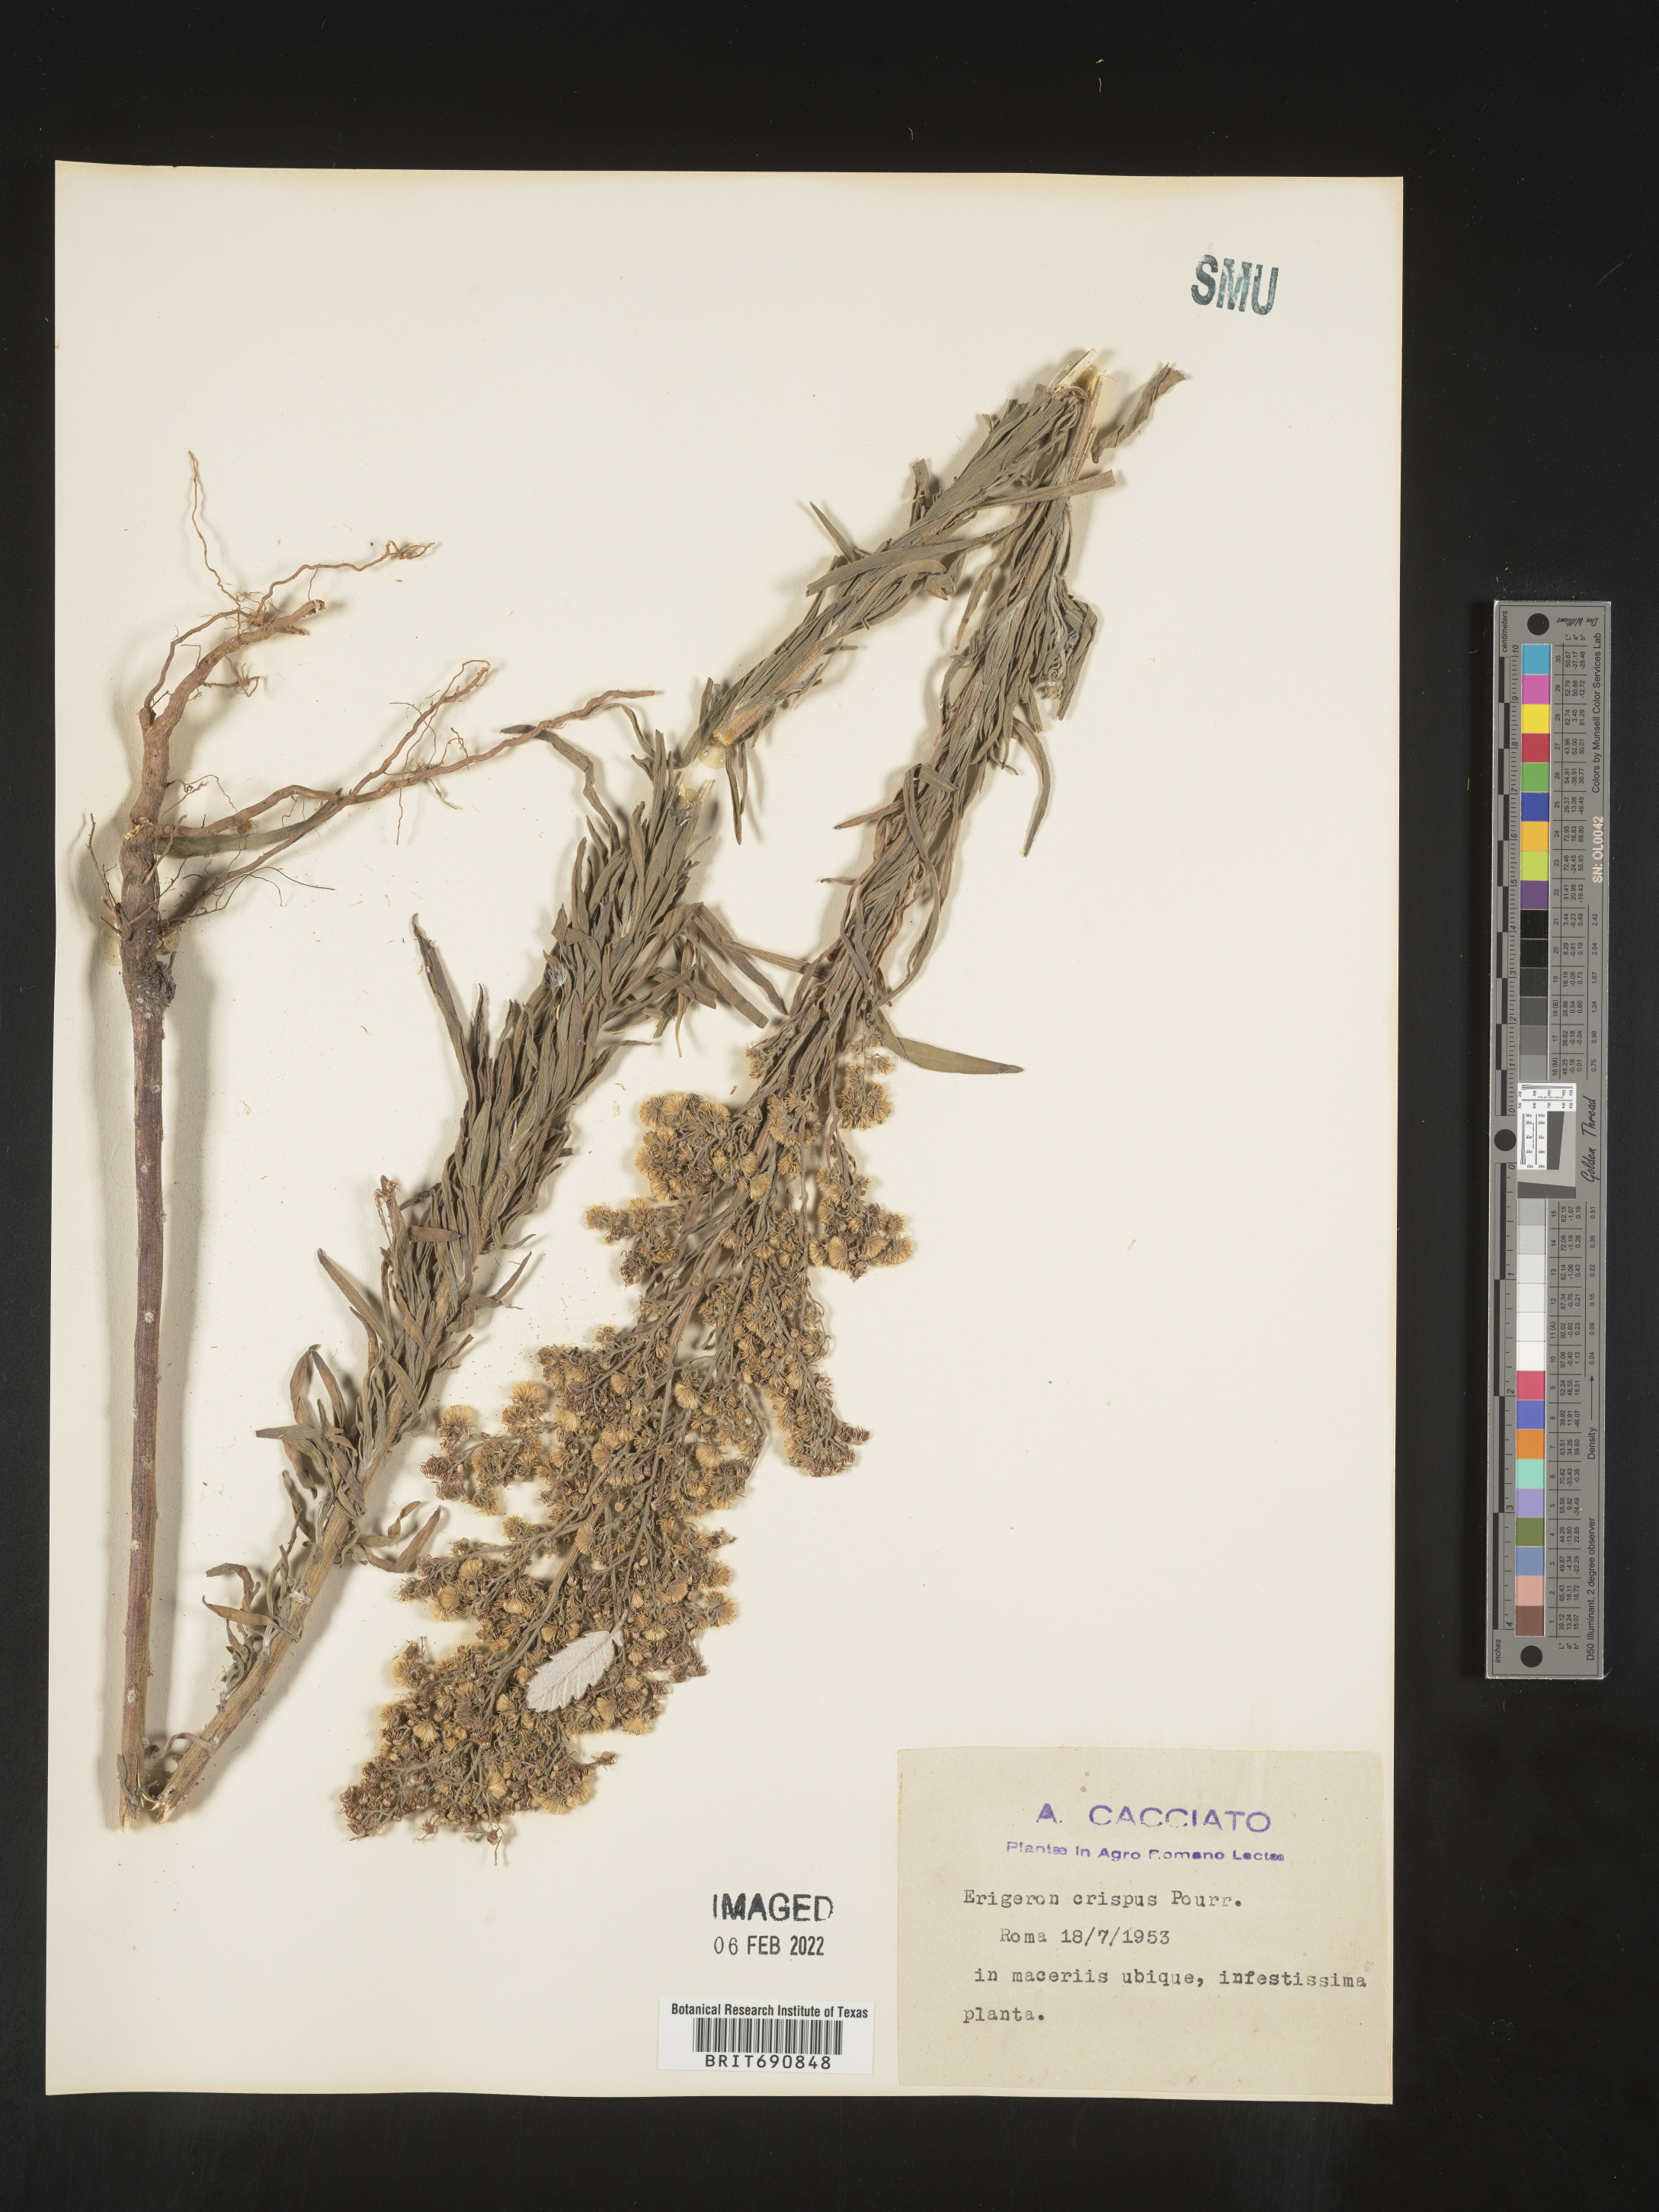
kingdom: Plantae
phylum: Tracheophyta
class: Magnoliopsida
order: Asterales
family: Asteraceae
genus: Conyza
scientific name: Conyza
